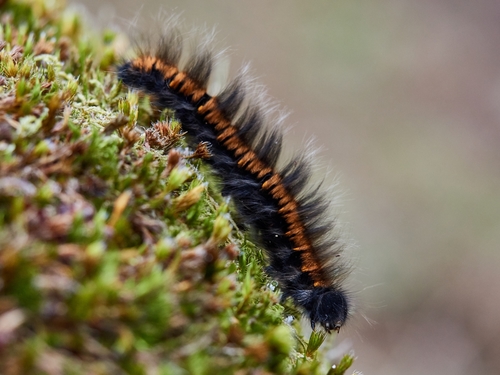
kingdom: Animalia
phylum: Arthropoda
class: Insecta
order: Lepidoptera
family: Lasiocampidae
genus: Macrothylacia
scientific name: Macrothylacia rubi
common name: Fox moth
